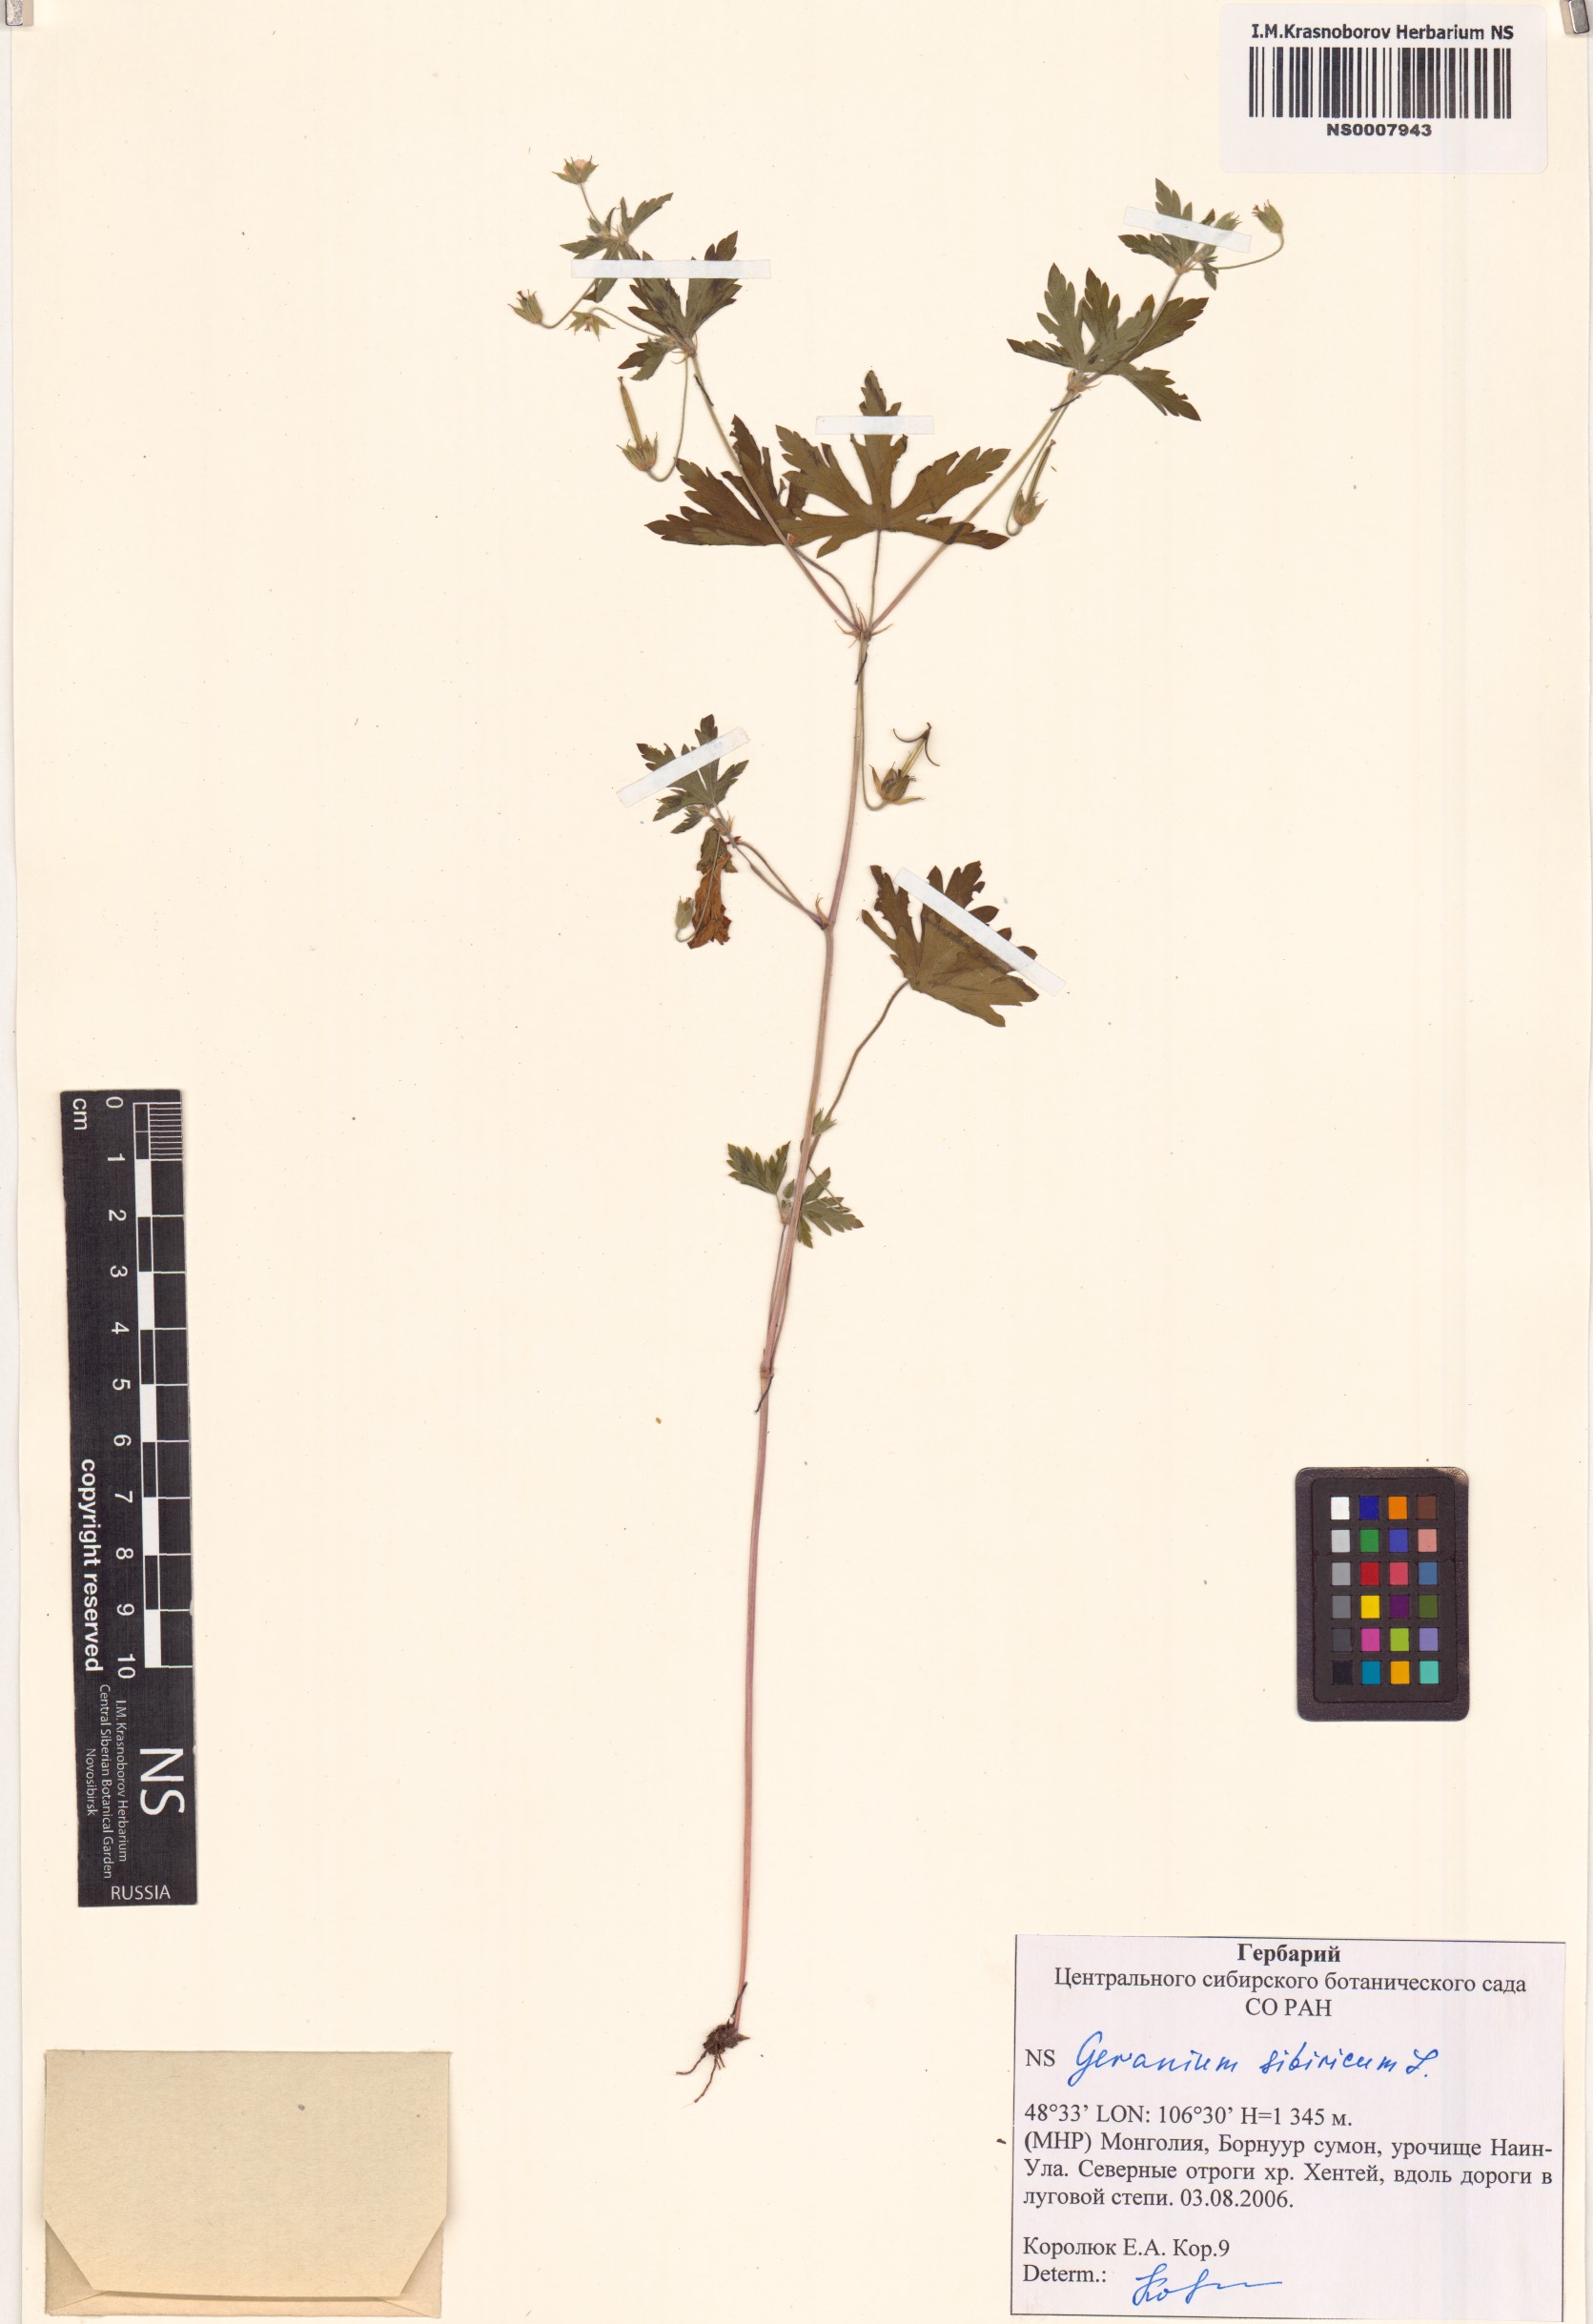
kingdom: Plantae
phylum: Tracheophyta
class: Magnoliopsida
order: Geraniales
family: Geraniaceae
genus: Geranium
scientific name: Geranium sibiricum
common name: Siberian crane's-bill
